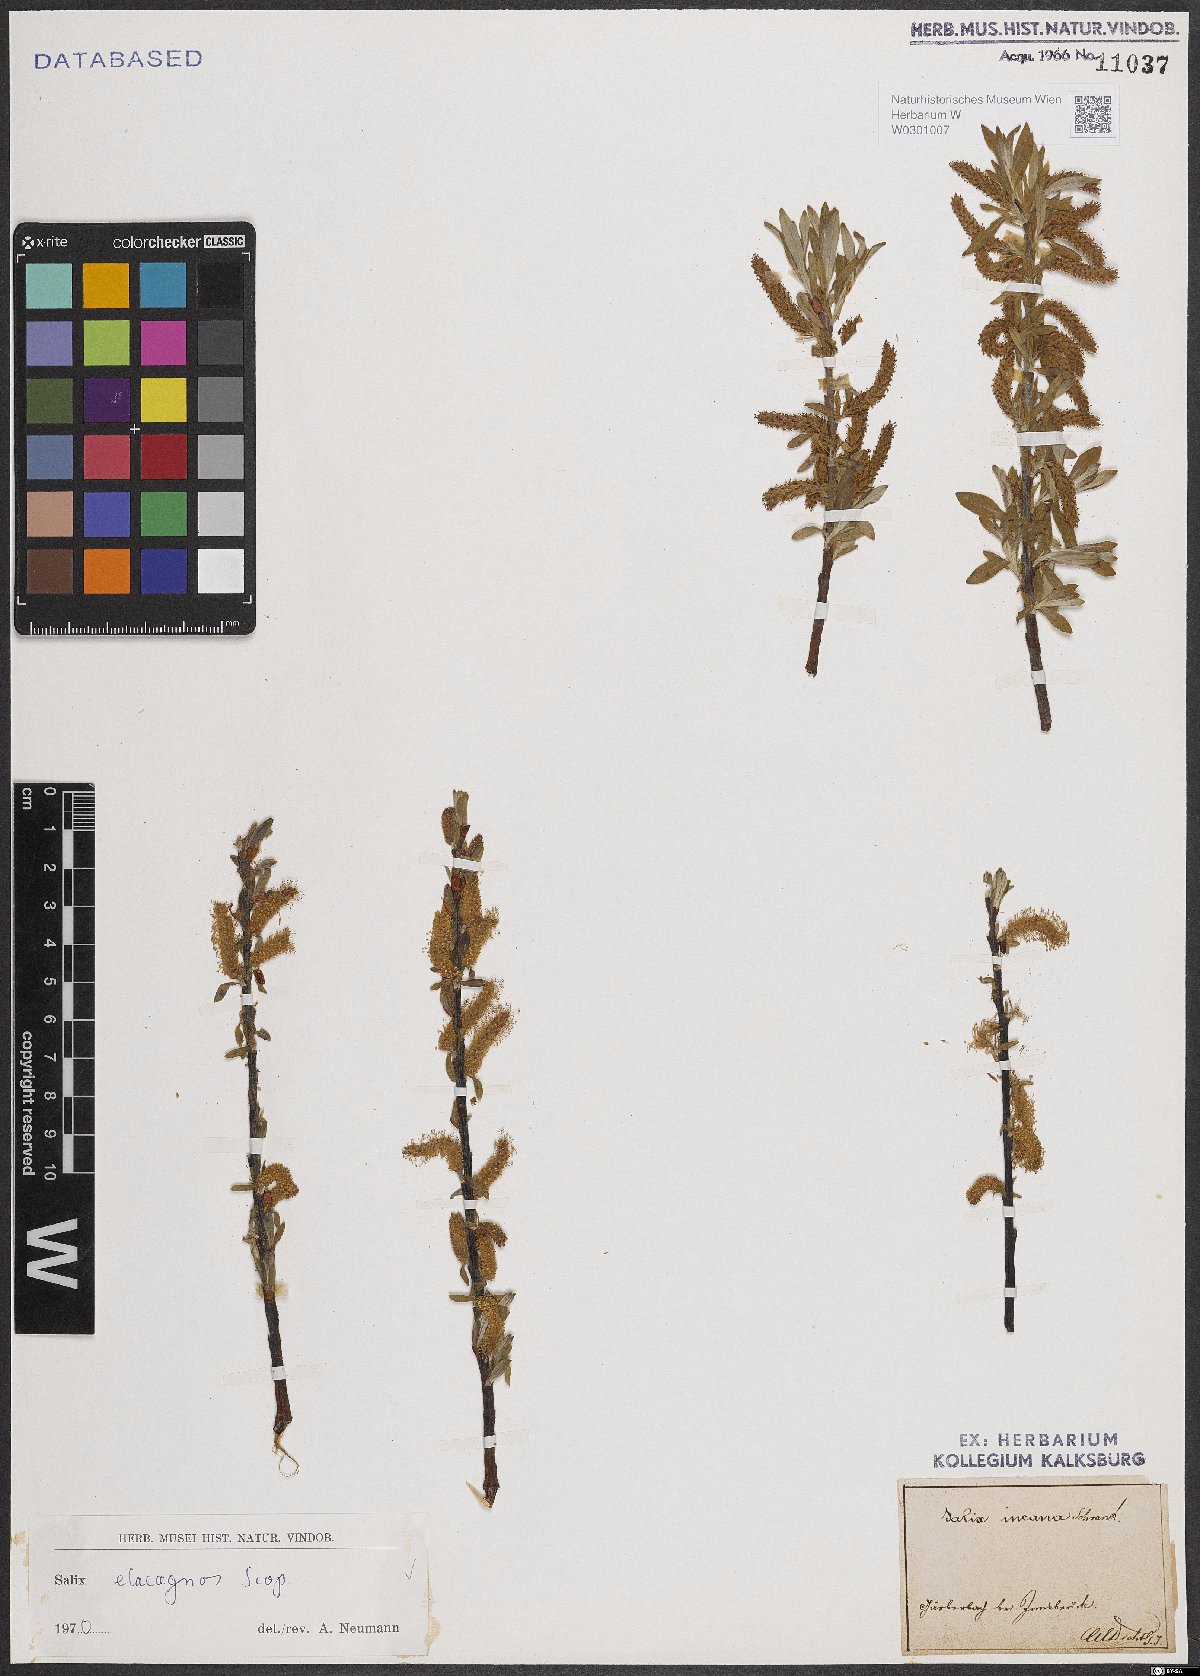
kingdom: Plantae
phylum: Tracheophyta
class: Magnoliopsida
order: Malpighiales
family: Salicaceae
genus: Salix
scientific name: Salix eleagnos
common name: Elaeagnus willow
